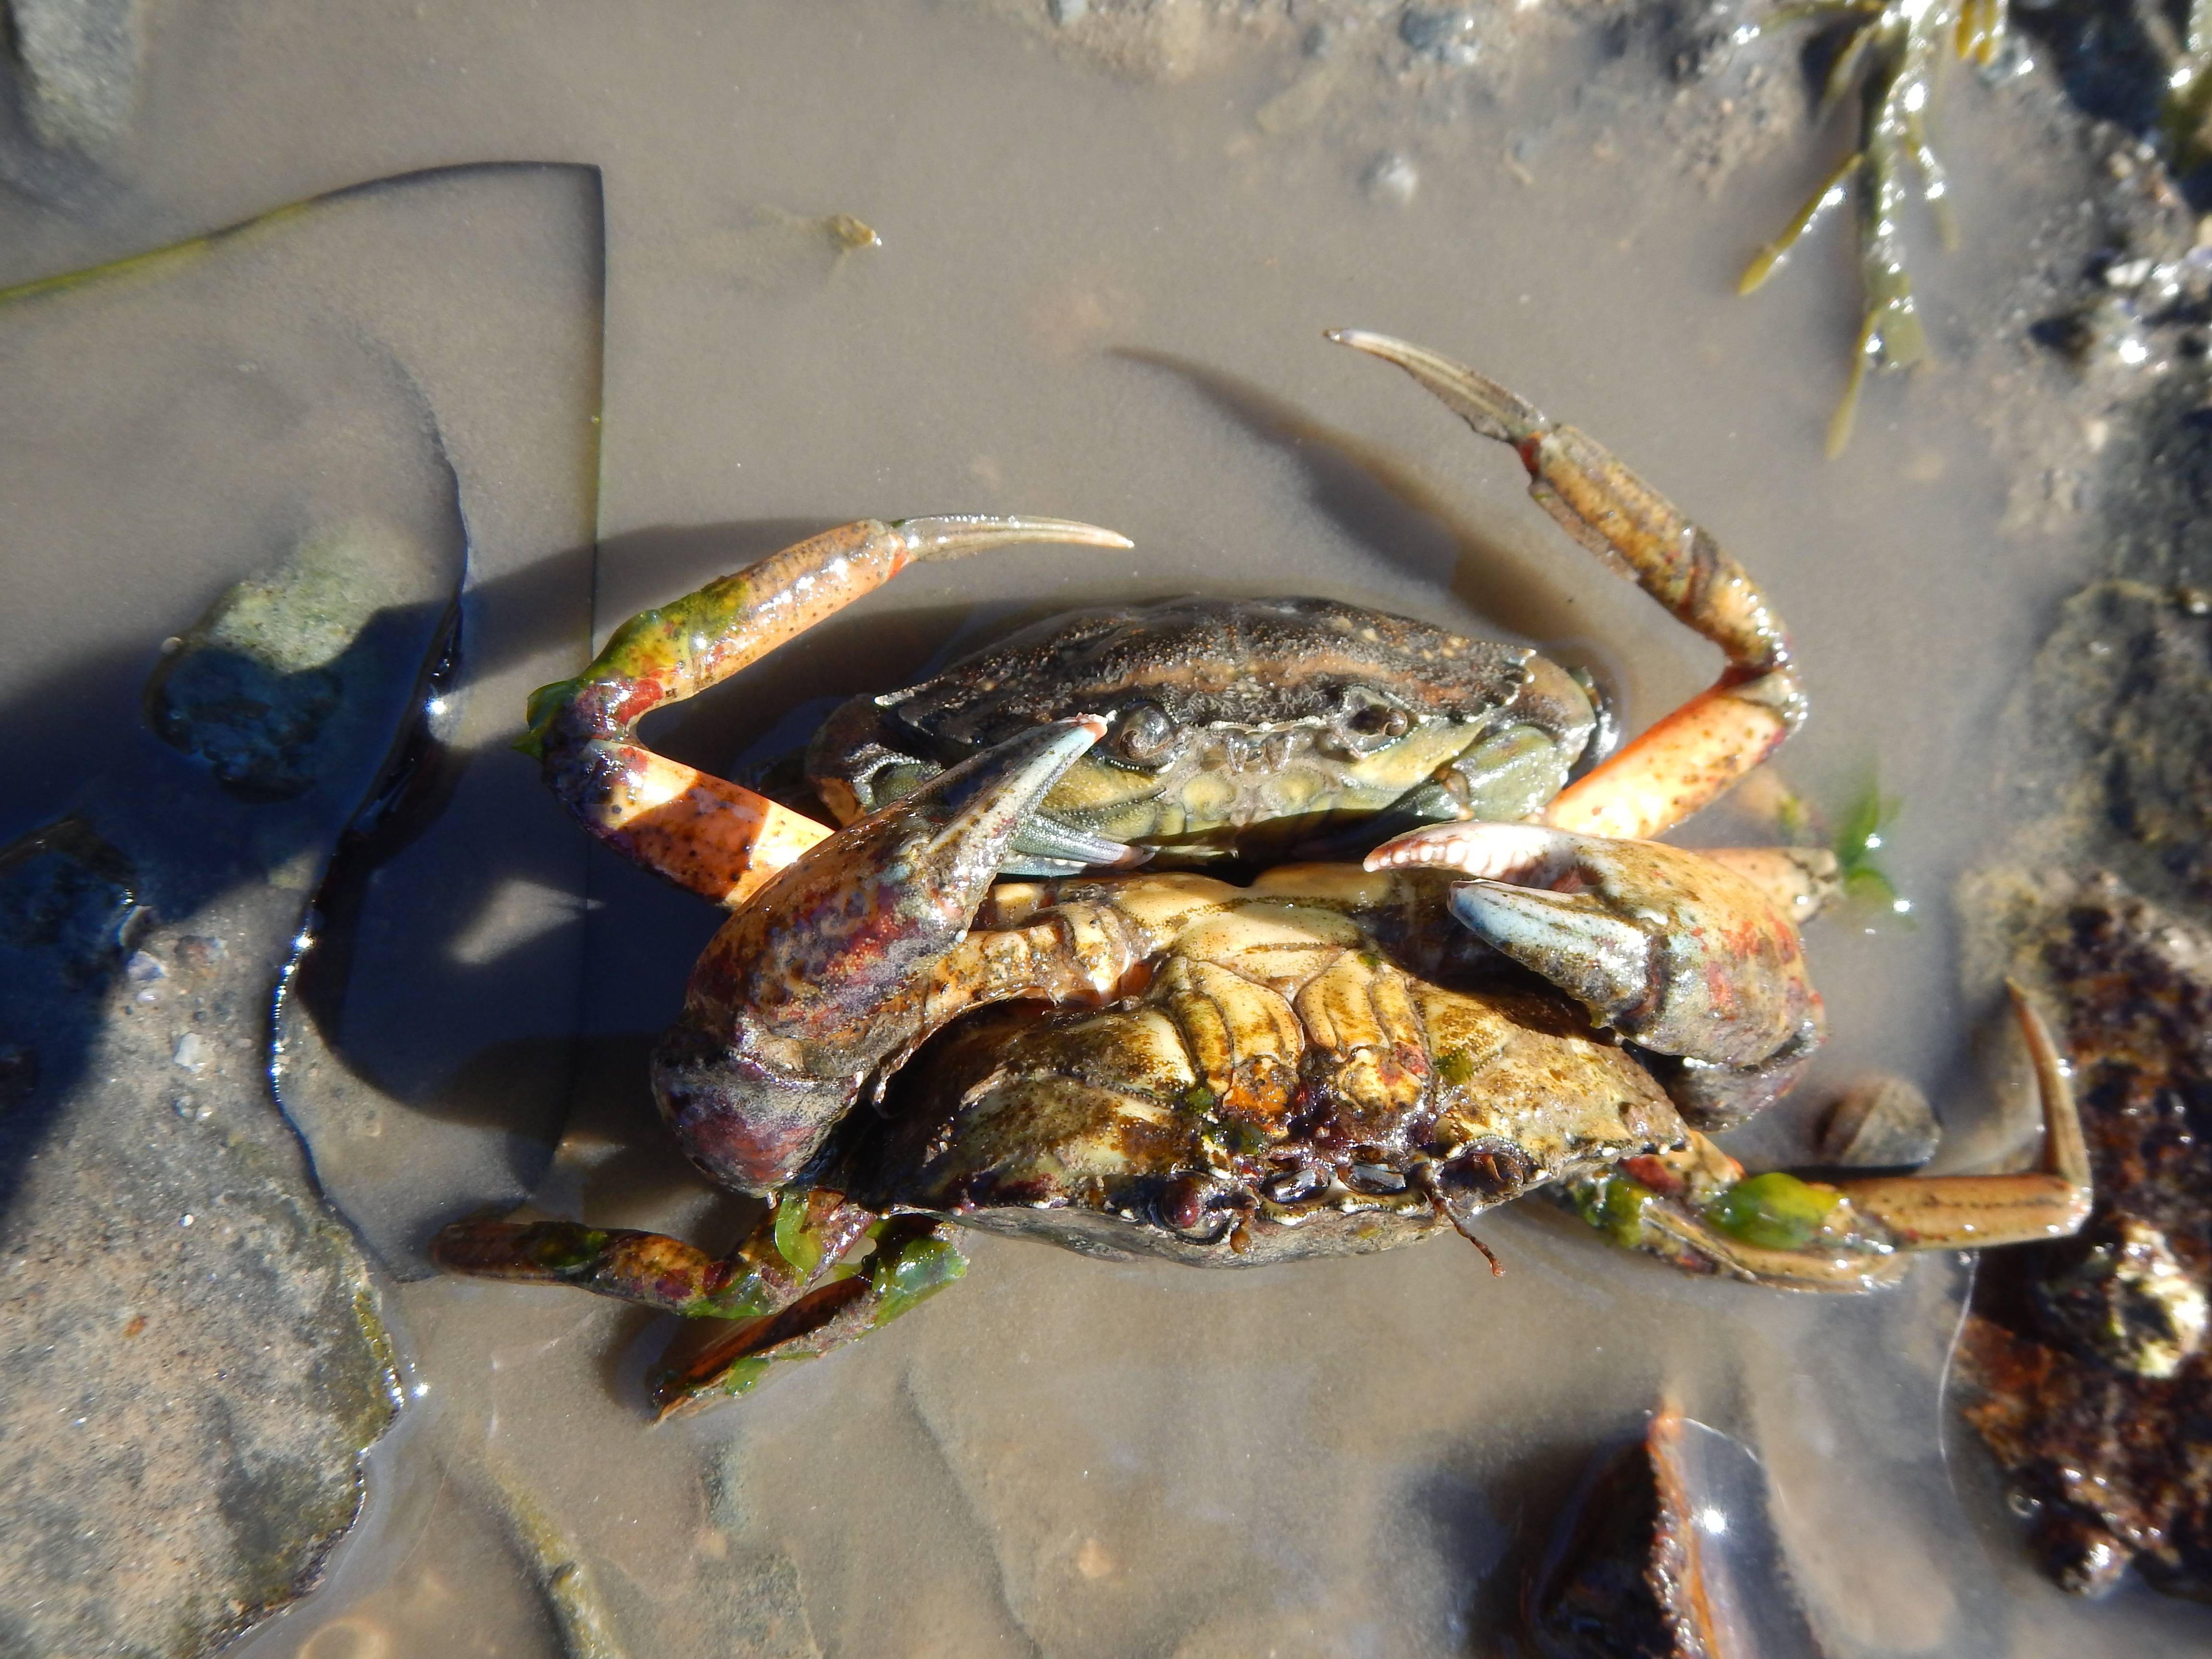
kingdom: Animalia
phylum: Arthropoda
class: Malacostraca
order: Decapoda
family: Carcinidae
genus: Carcinus
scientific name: Carcinus maenas
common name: green crab
